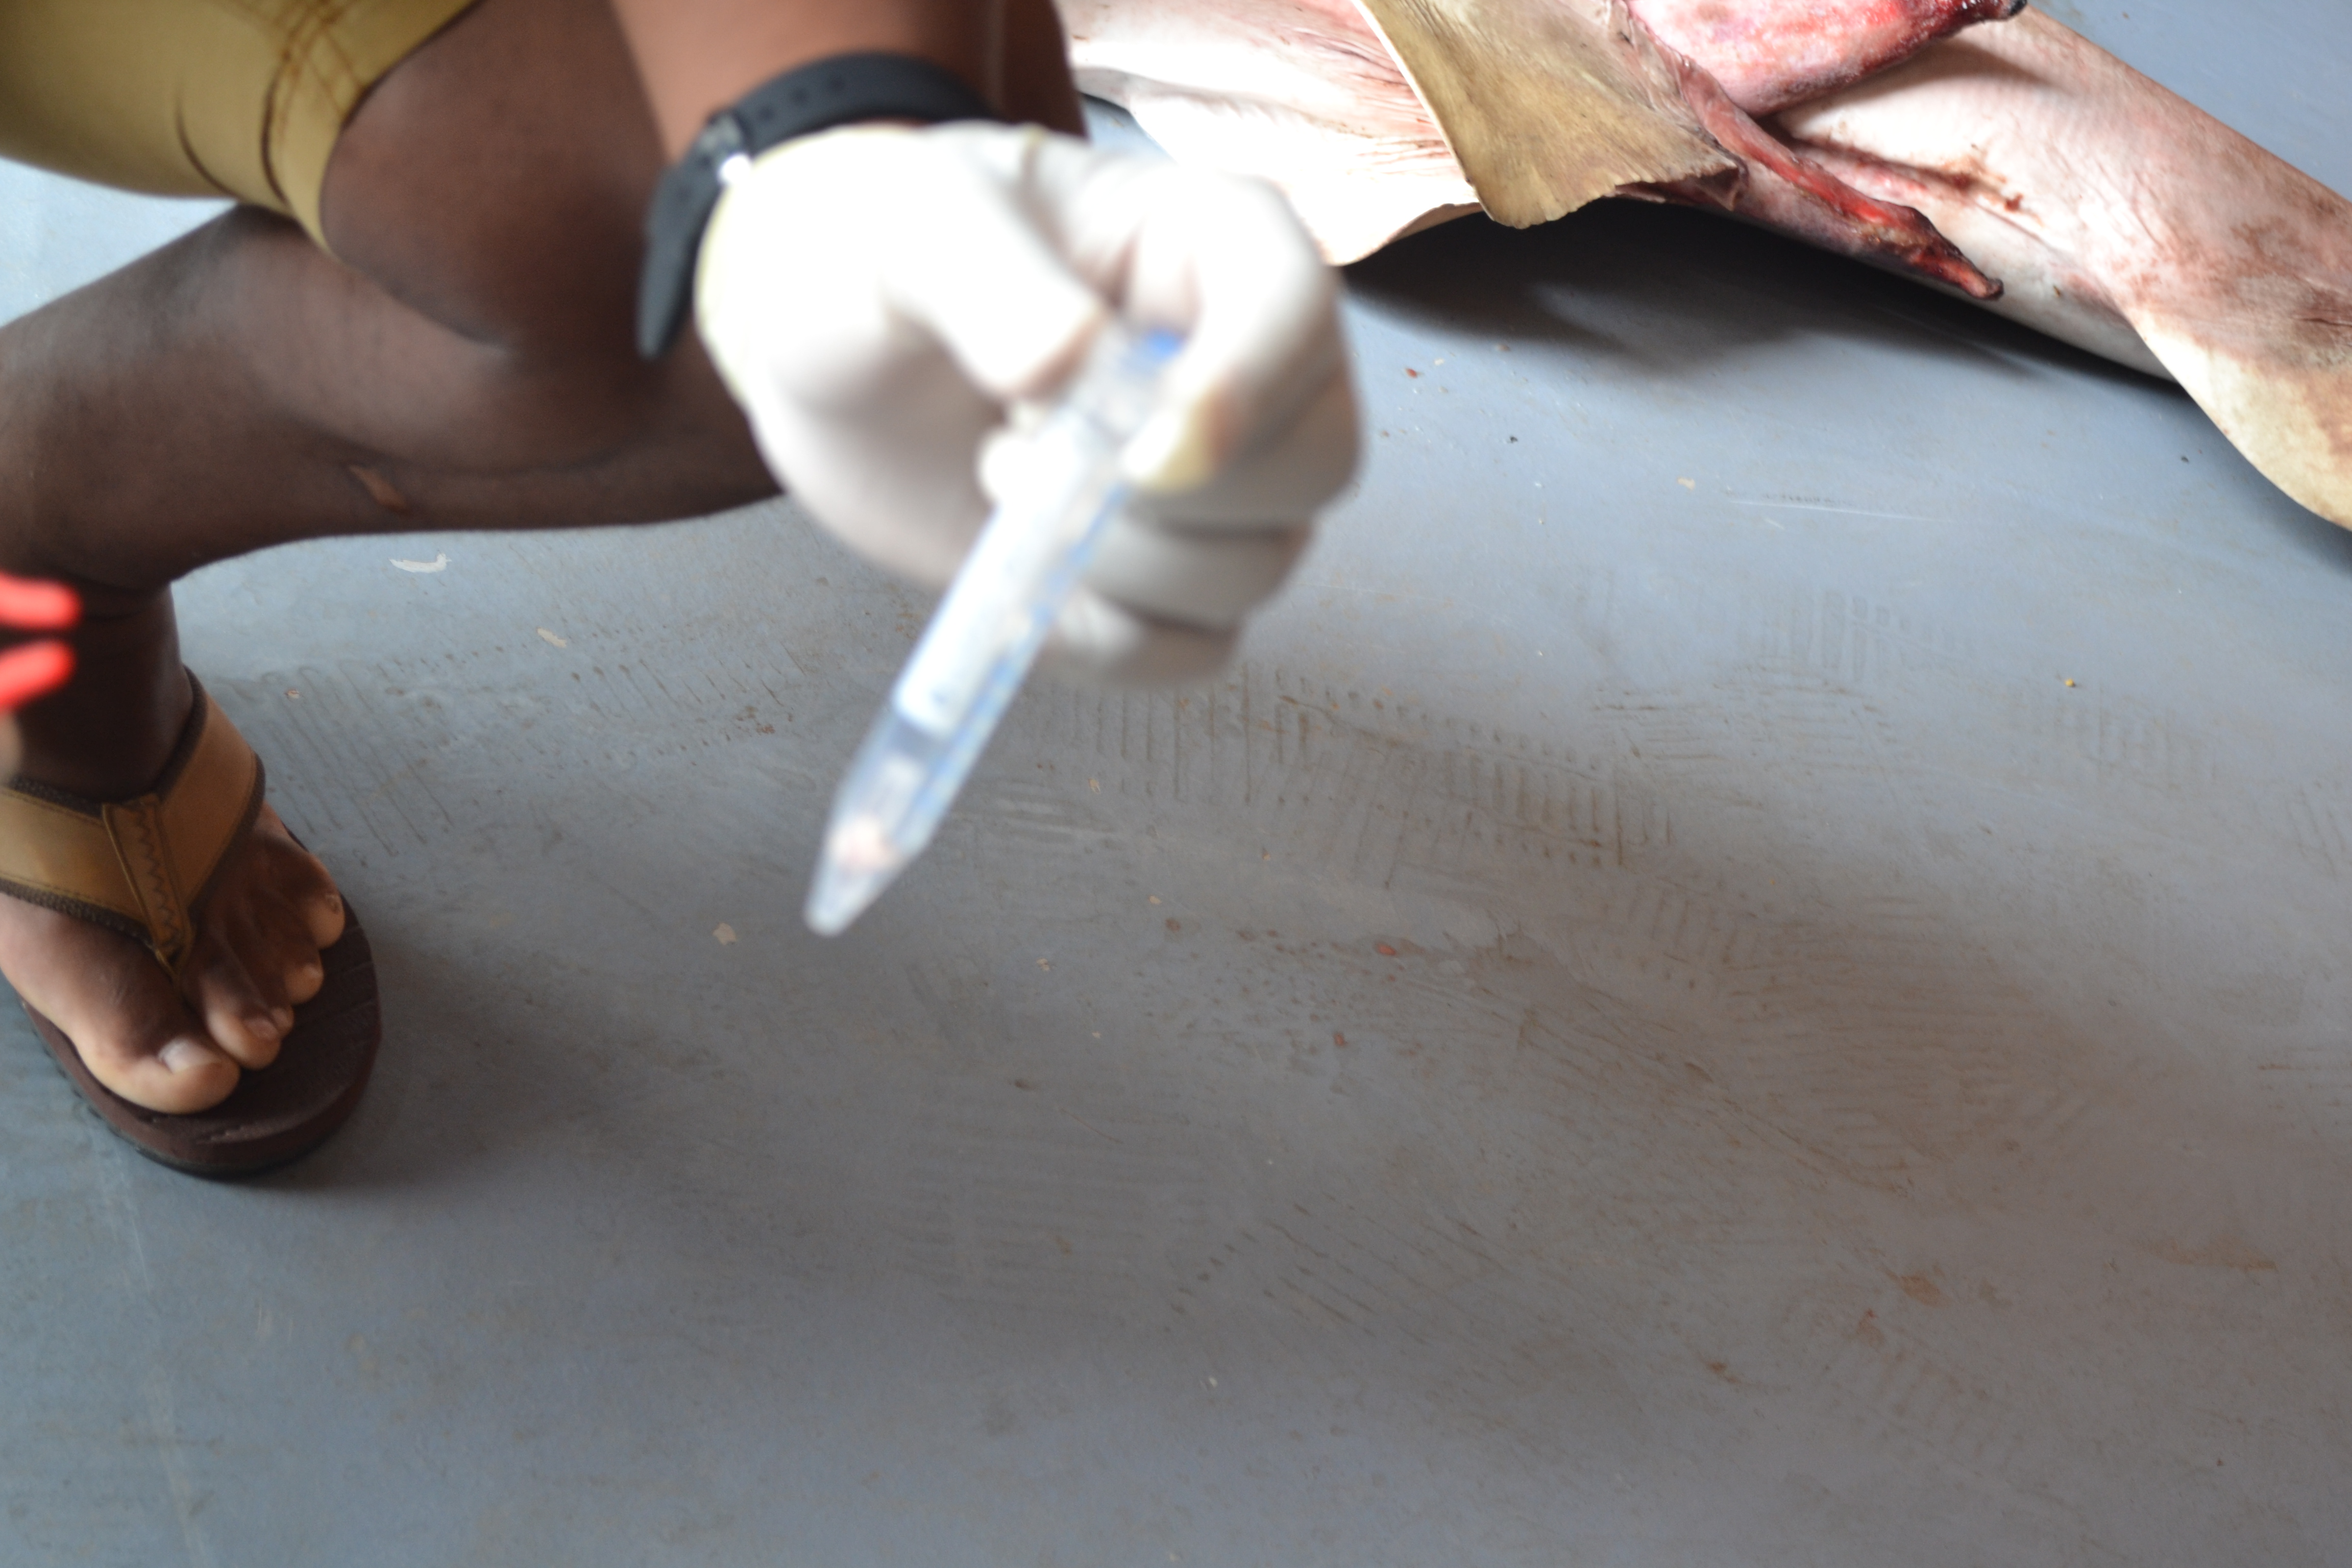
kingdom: Animalia
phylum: Chordata
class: Elasmobranchii
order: Carcharhiniformes
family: Sphyrnidae
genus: Sphyrna
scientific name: Sphyrna lewini
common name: Scalloped hammerhead
